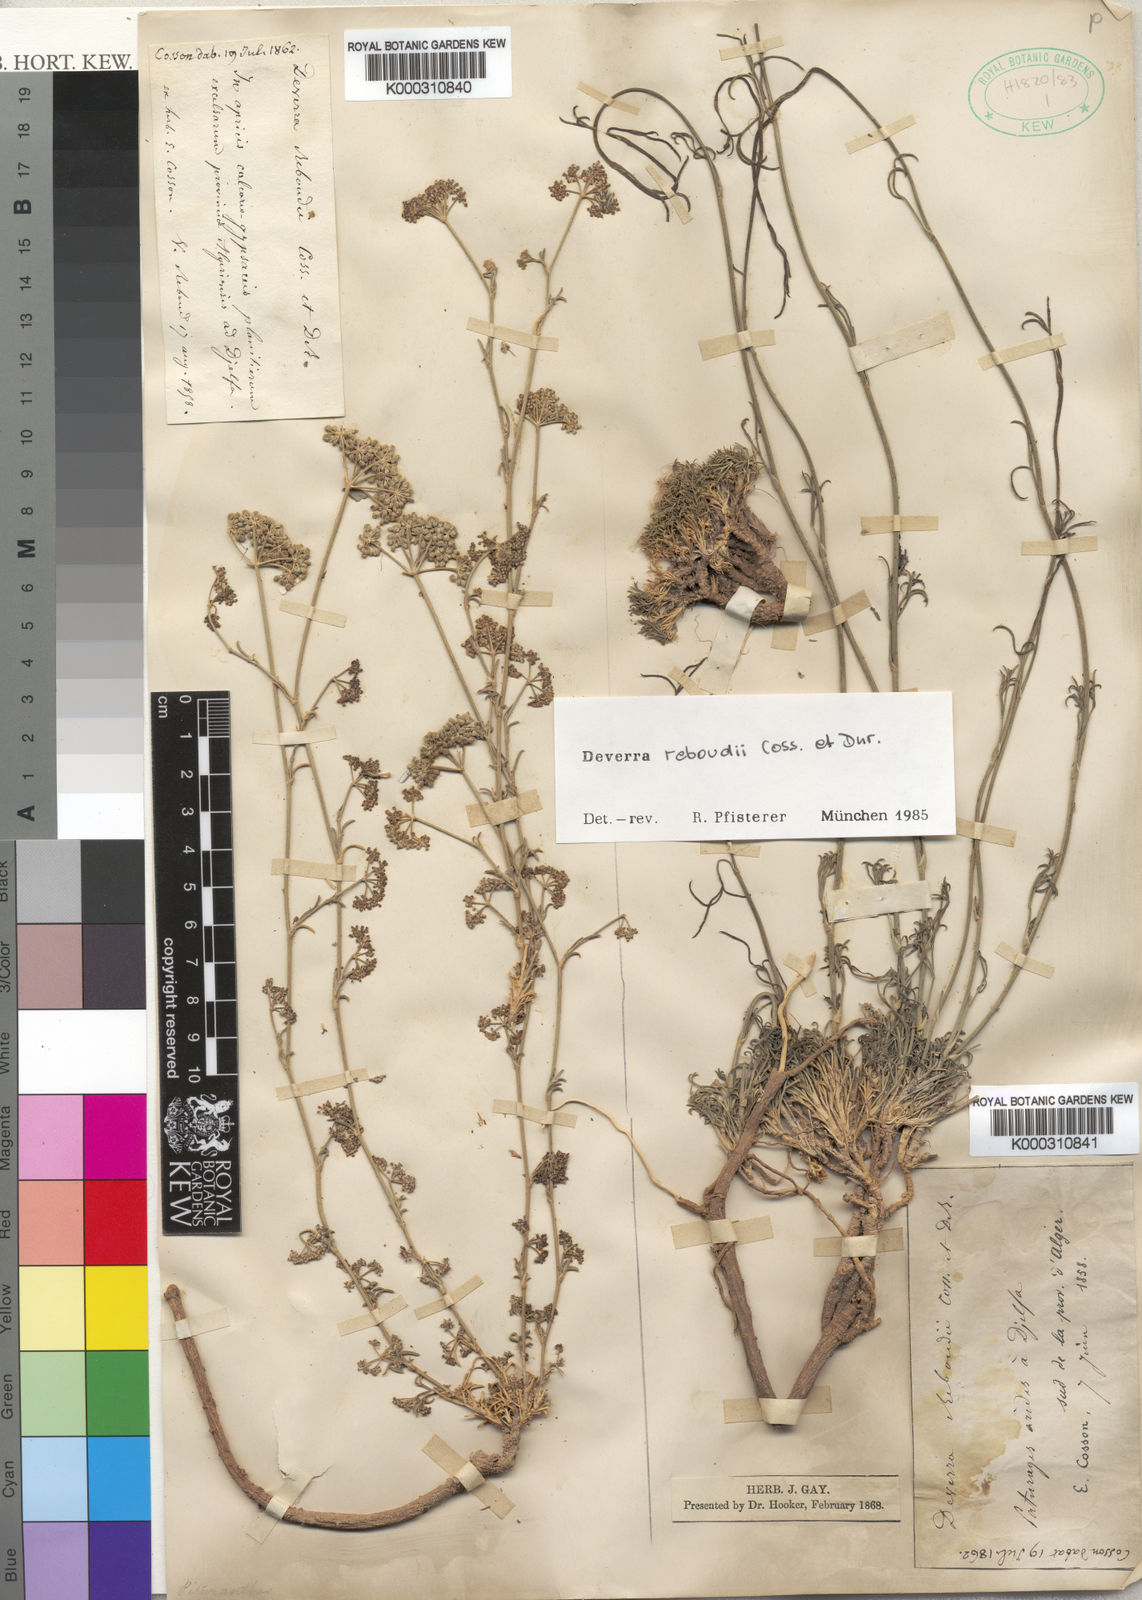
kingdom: Plantae
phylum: Tracheophyta
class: Magnoliopsida
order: Apiales
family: Apiaceae
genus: Deverra
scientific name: Deverra reboudii
